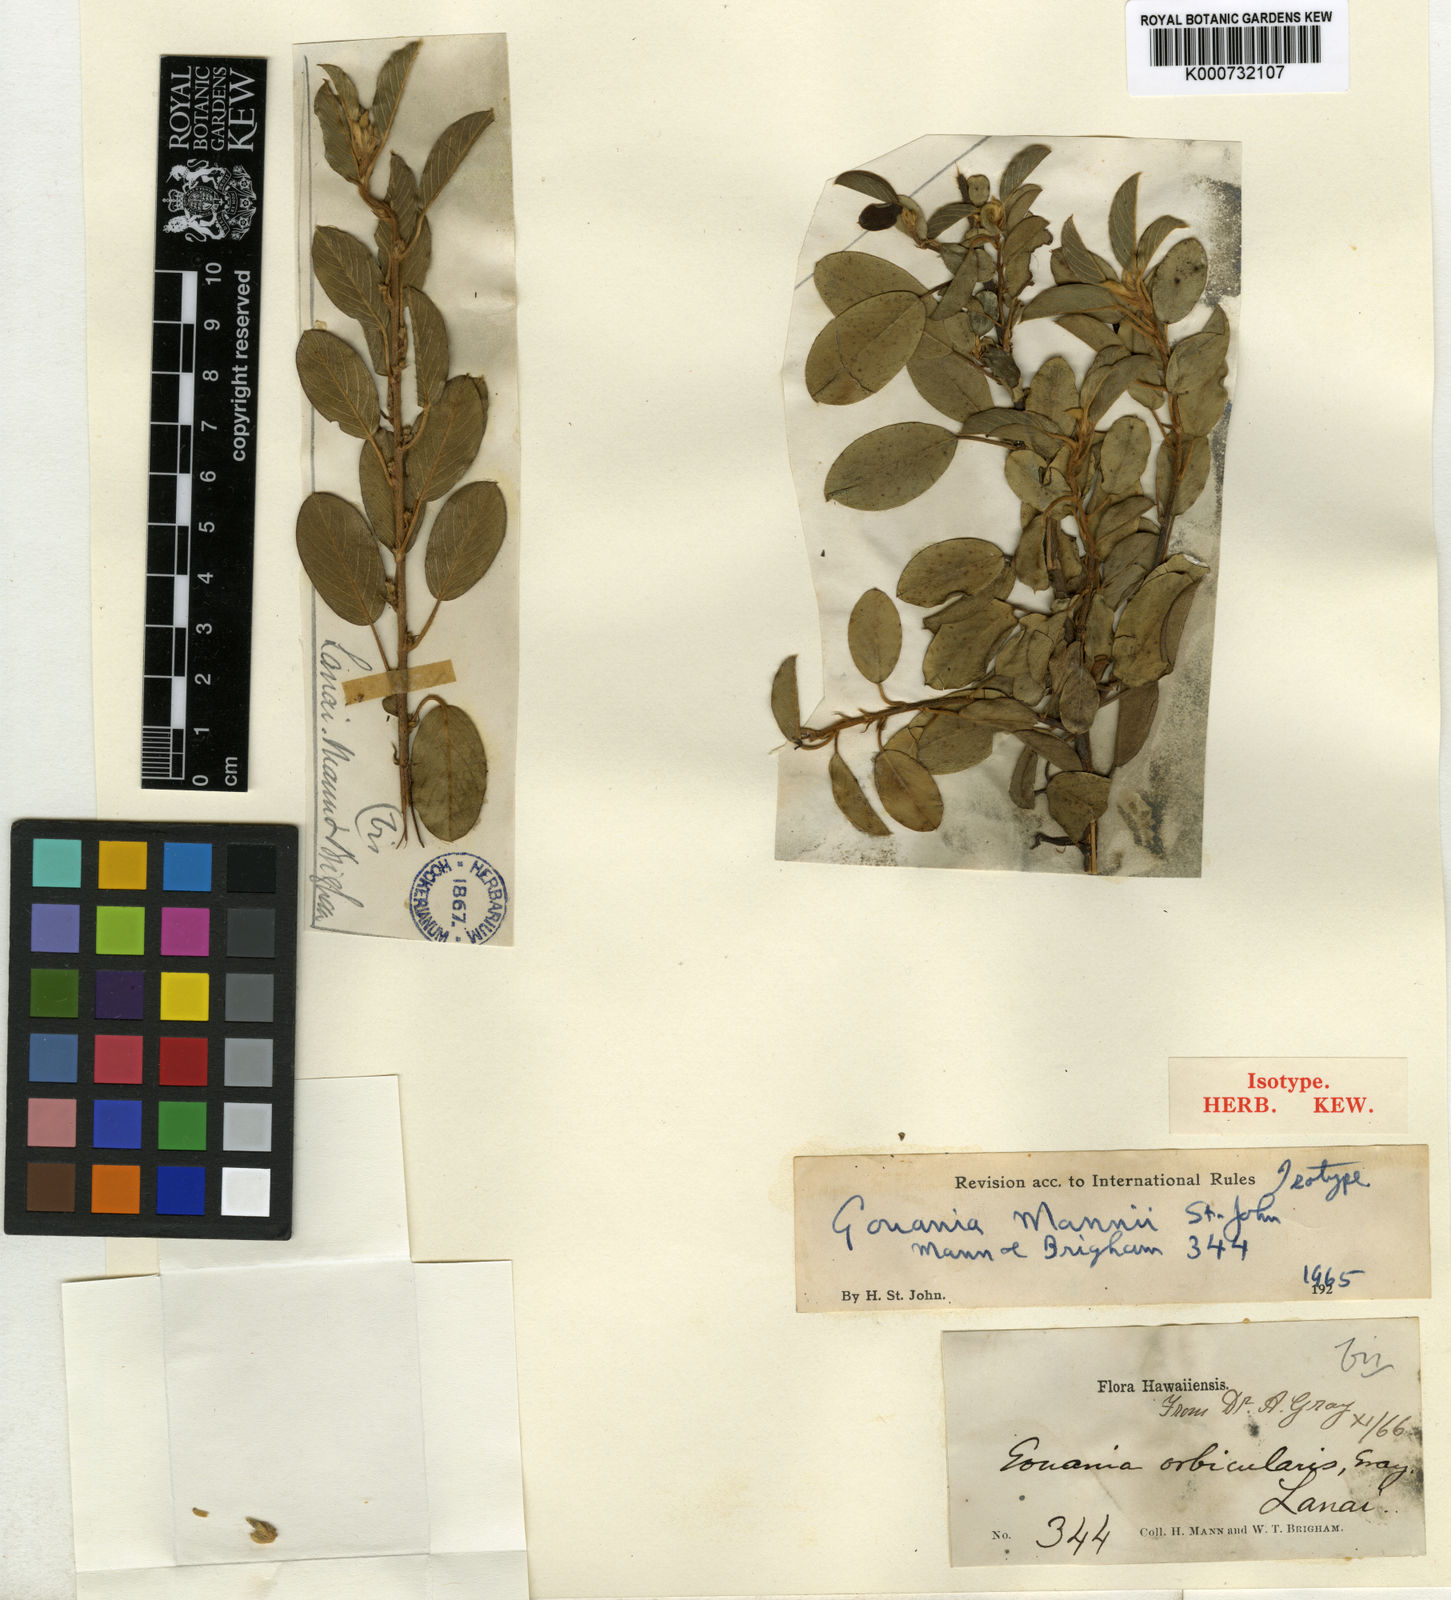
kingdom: Plantae
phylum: Tracheophyta
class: Magnoliopsida
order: Rosales
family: Rhamnaceae
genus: Gouania
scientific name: Gouania hillebrandii
